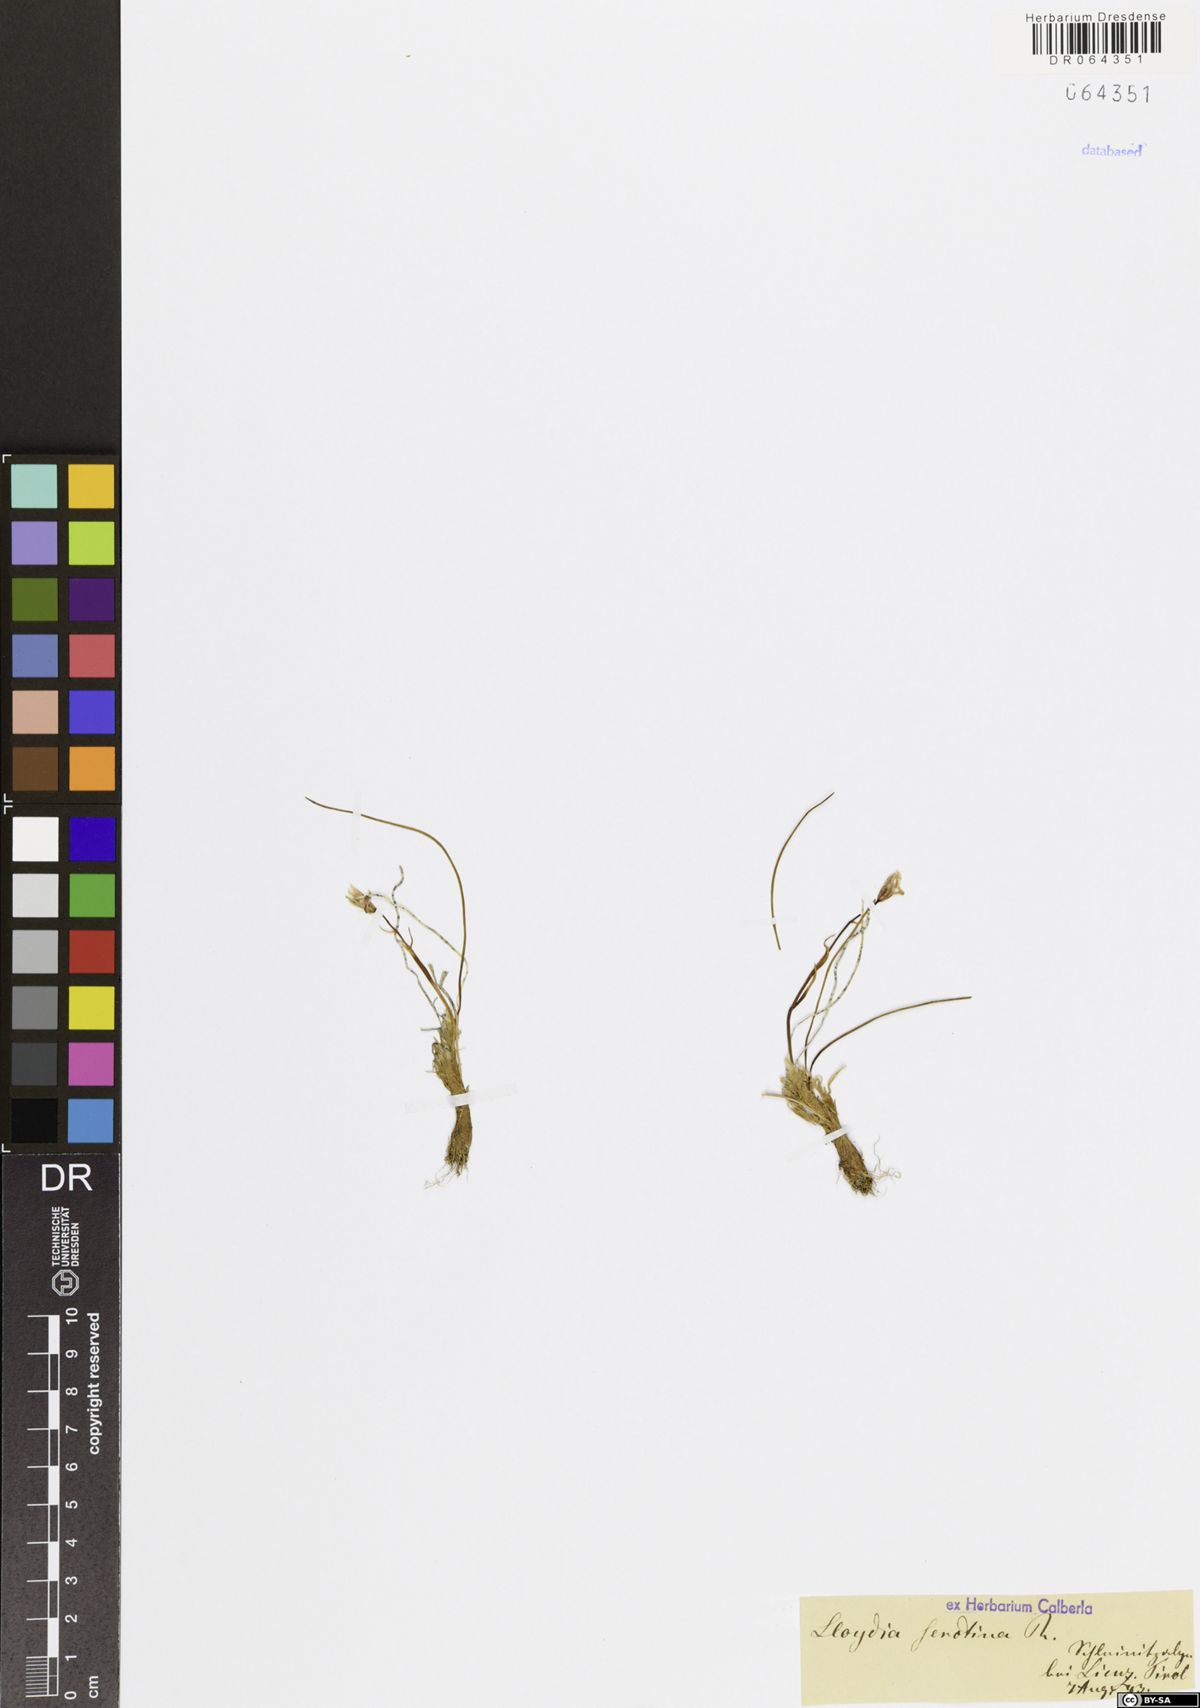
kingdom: Plantae
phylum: Tracheophyta
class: Liliopsida
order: Liliales
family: Liliaceae
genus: Gagea
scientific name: Gagea serotina
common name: Snowdon lily
